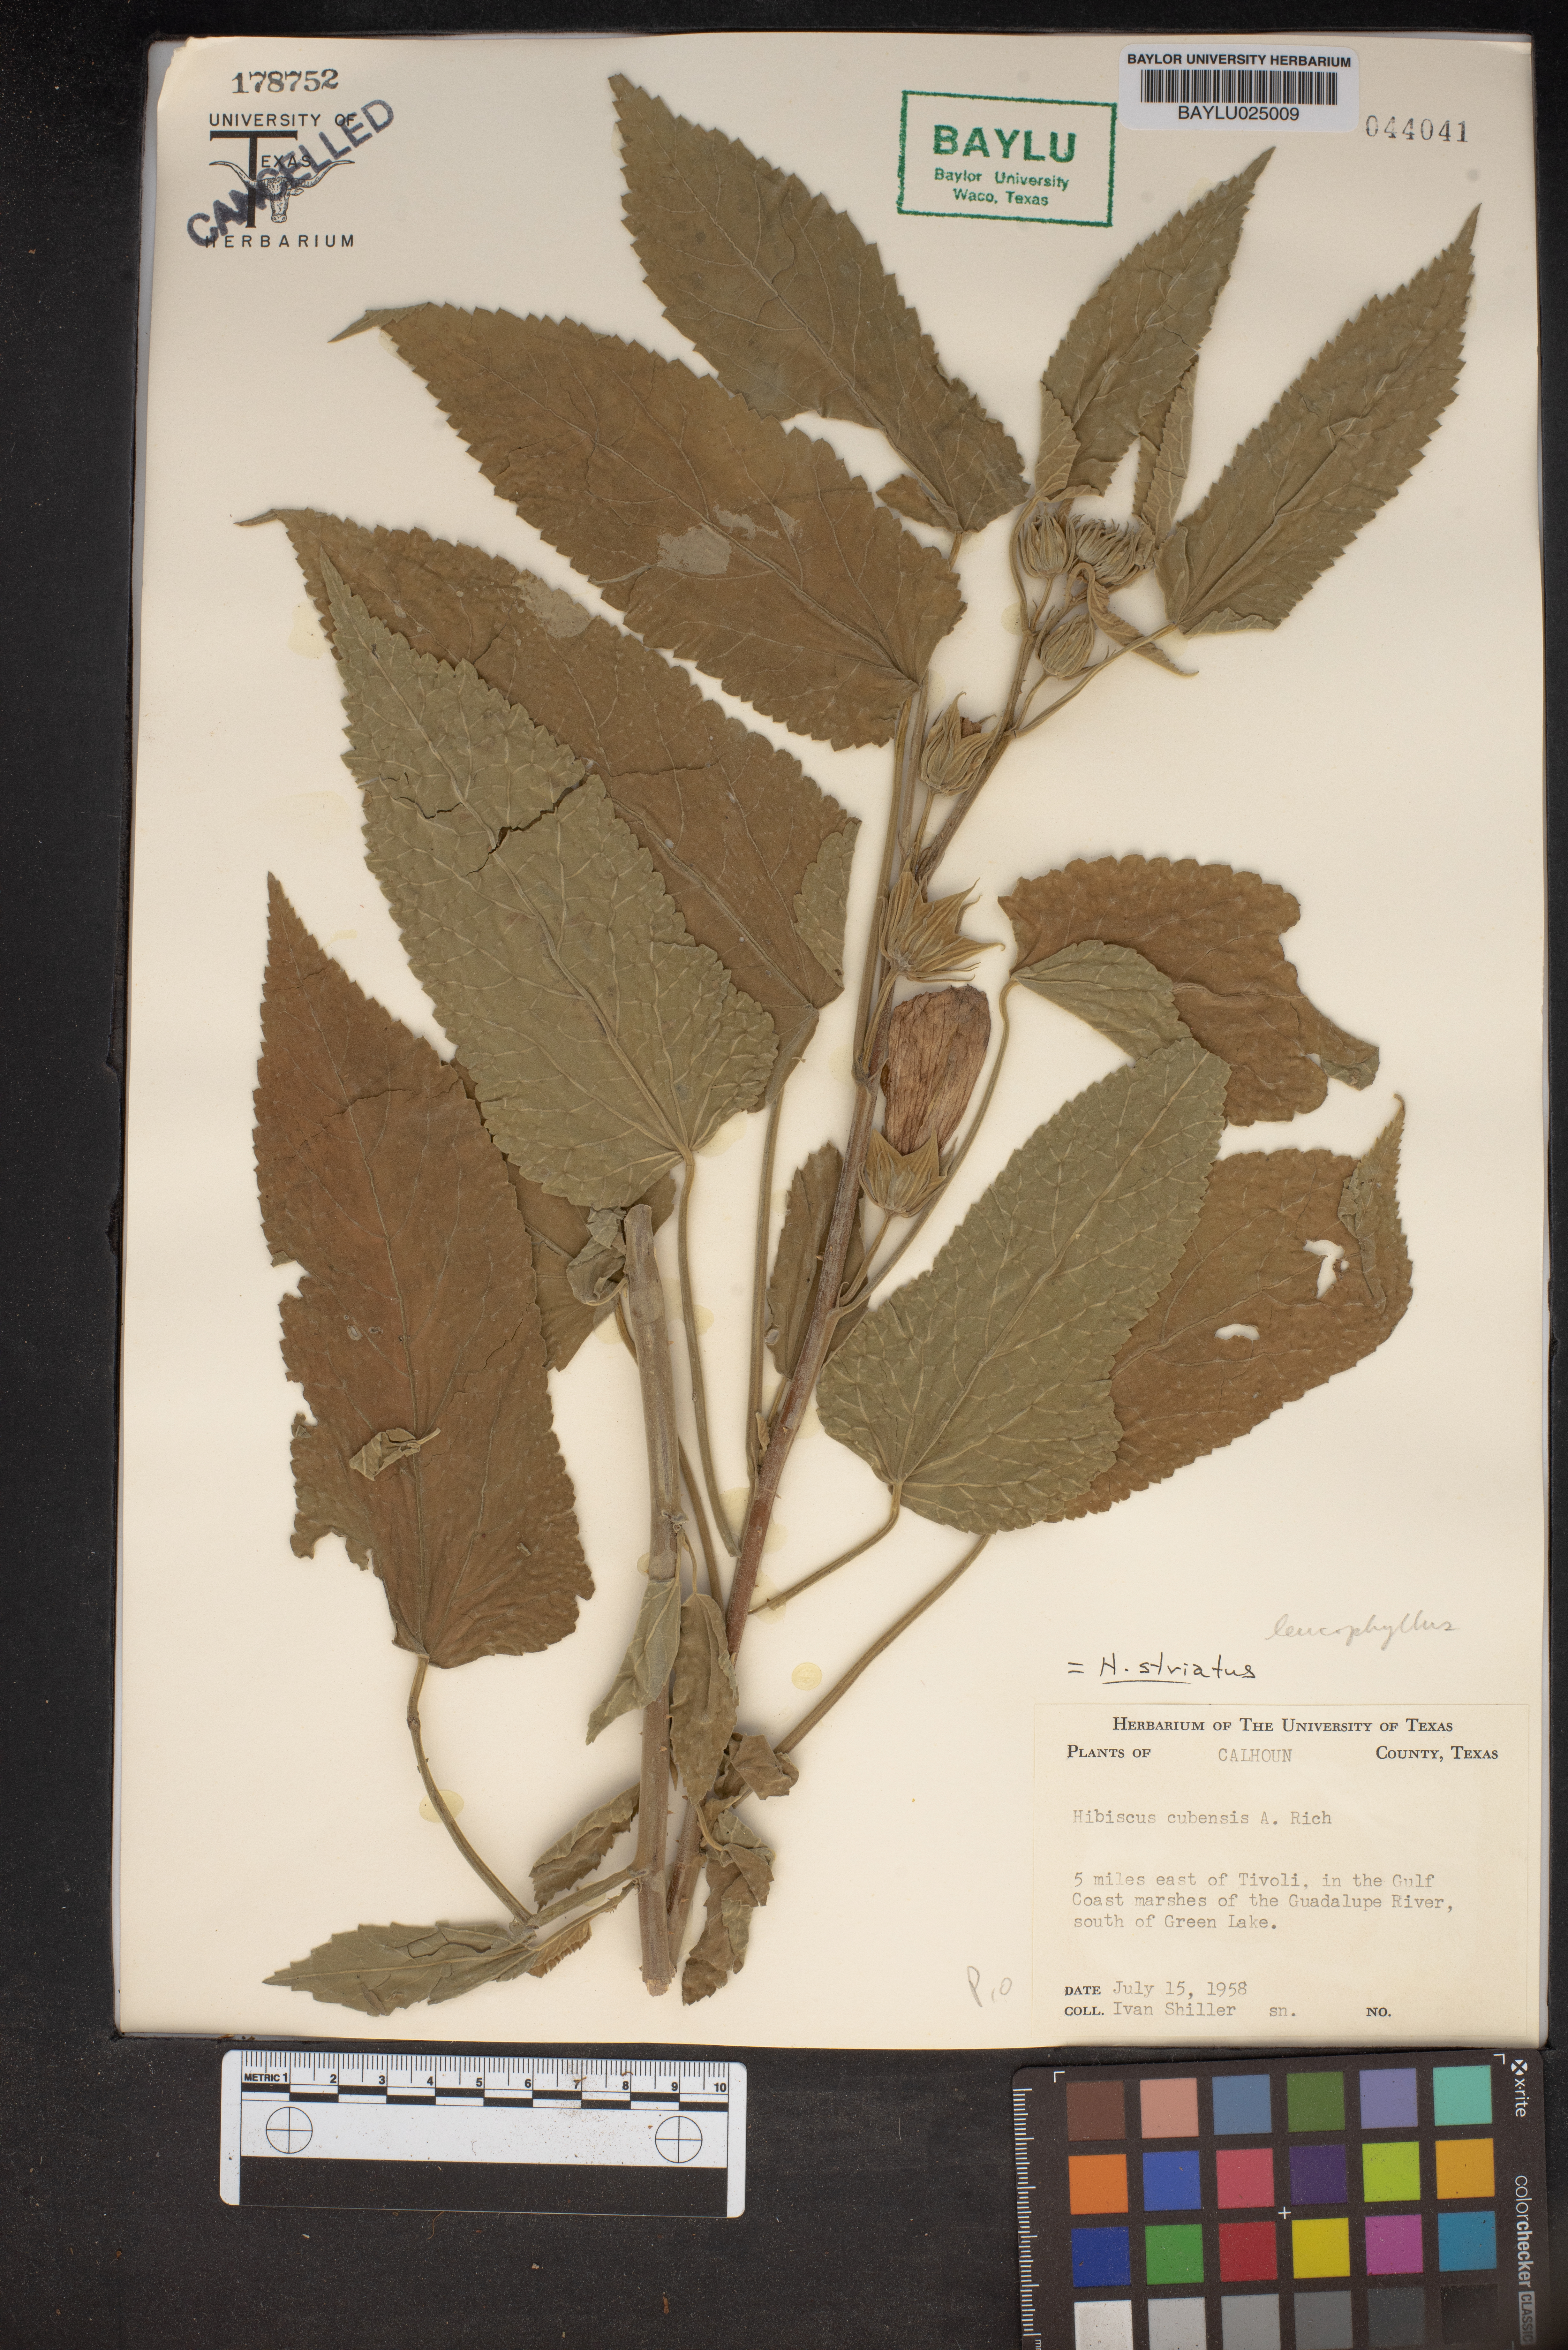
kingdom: Plantae
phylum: Tracheophyta
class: Magnoliopsida
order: Malvales
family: Malvaceae
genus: Hibiscus
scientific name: Hibiscus striatus
